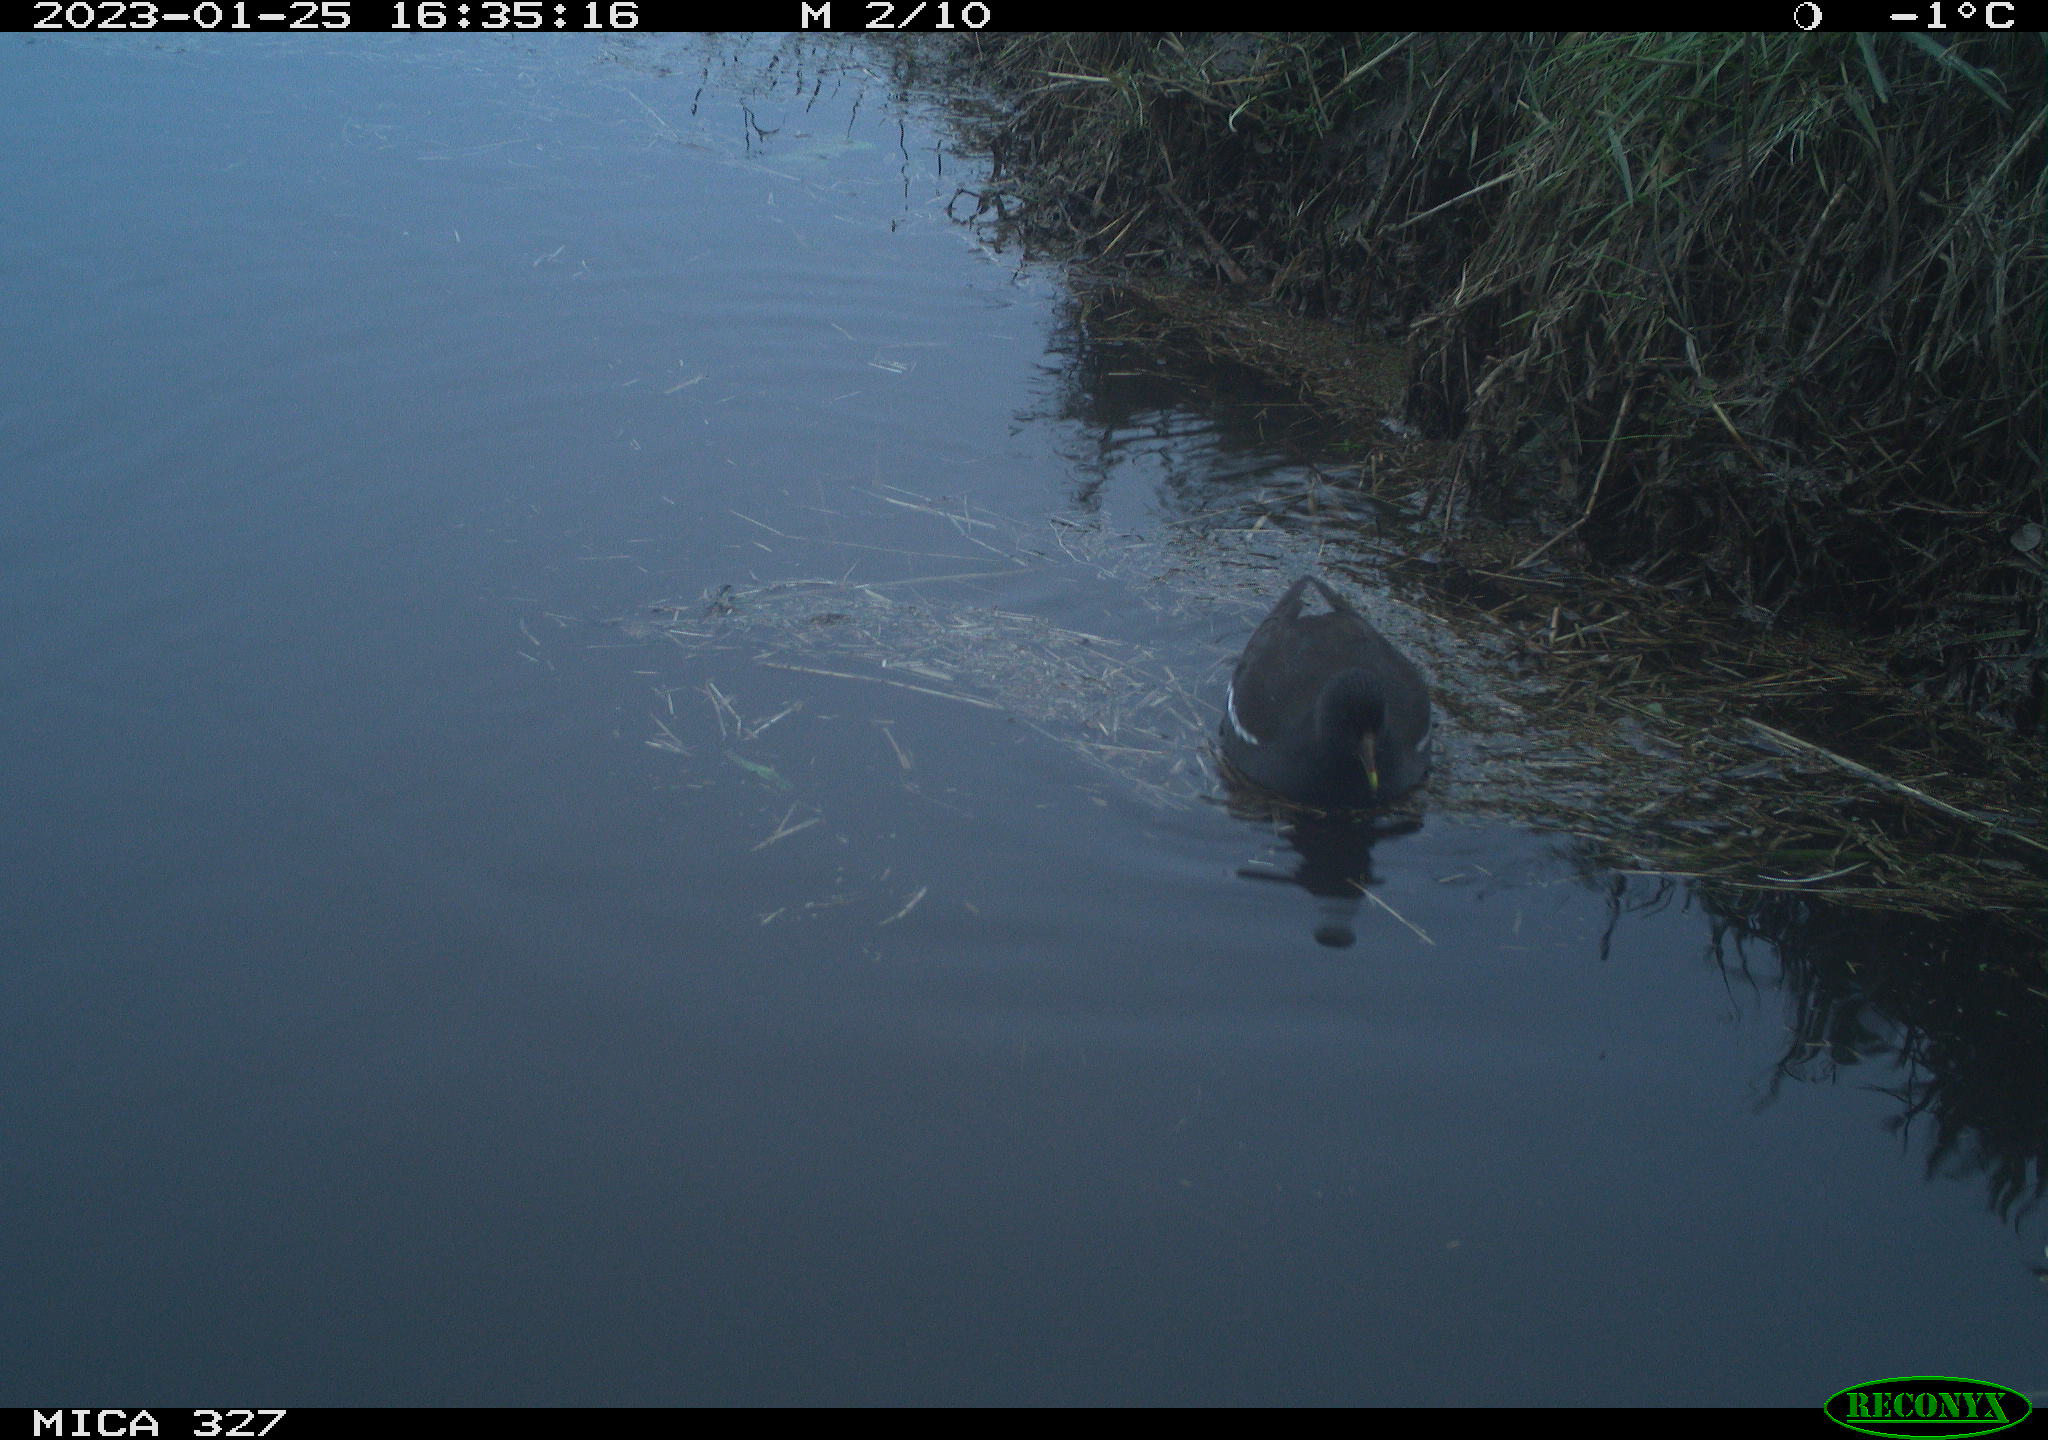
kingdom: Animalia
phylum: Chordata
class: Aves
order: Gruiformes
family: Rallidae
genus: Gallinula
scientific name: Gallinula chloropus
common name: Common moorhen
